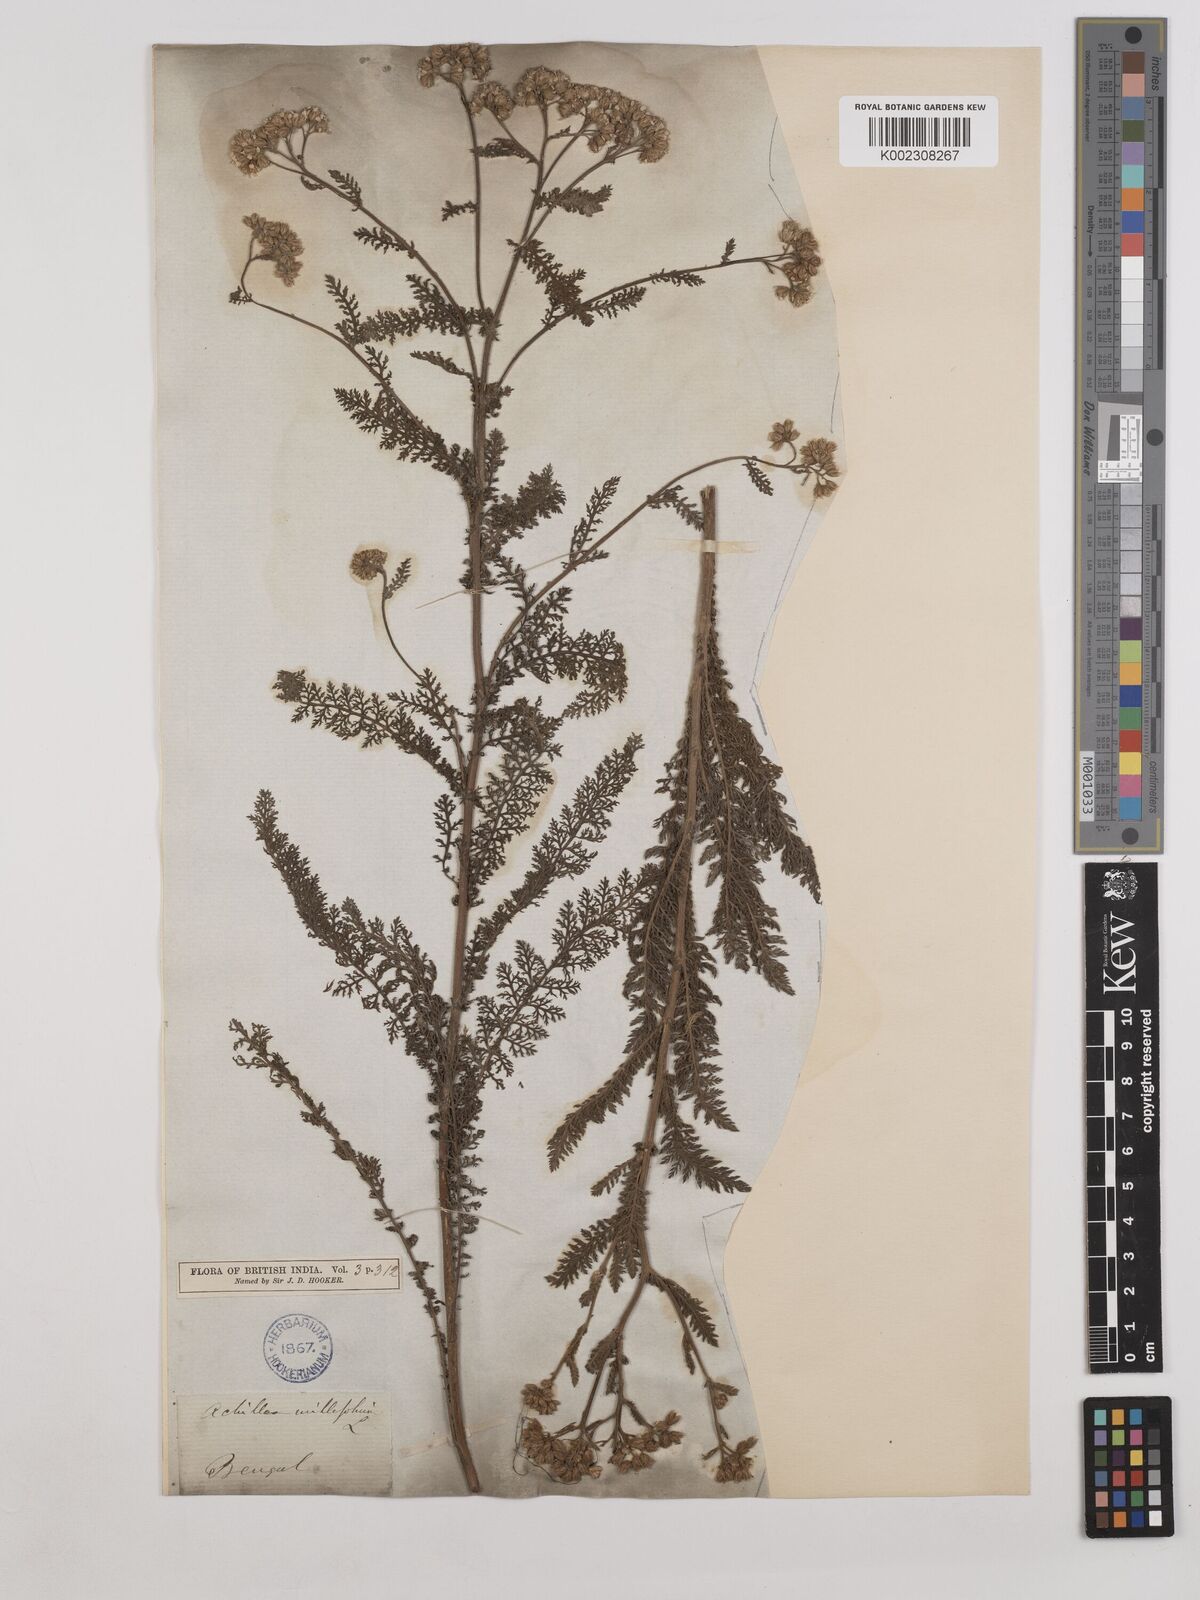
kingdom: Plantae
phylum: Tracheophyta
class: Magnoliopsida
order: Asterales
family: Asteraceae
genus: Achillea
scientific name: Achillea millefolium
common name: Yarrow
